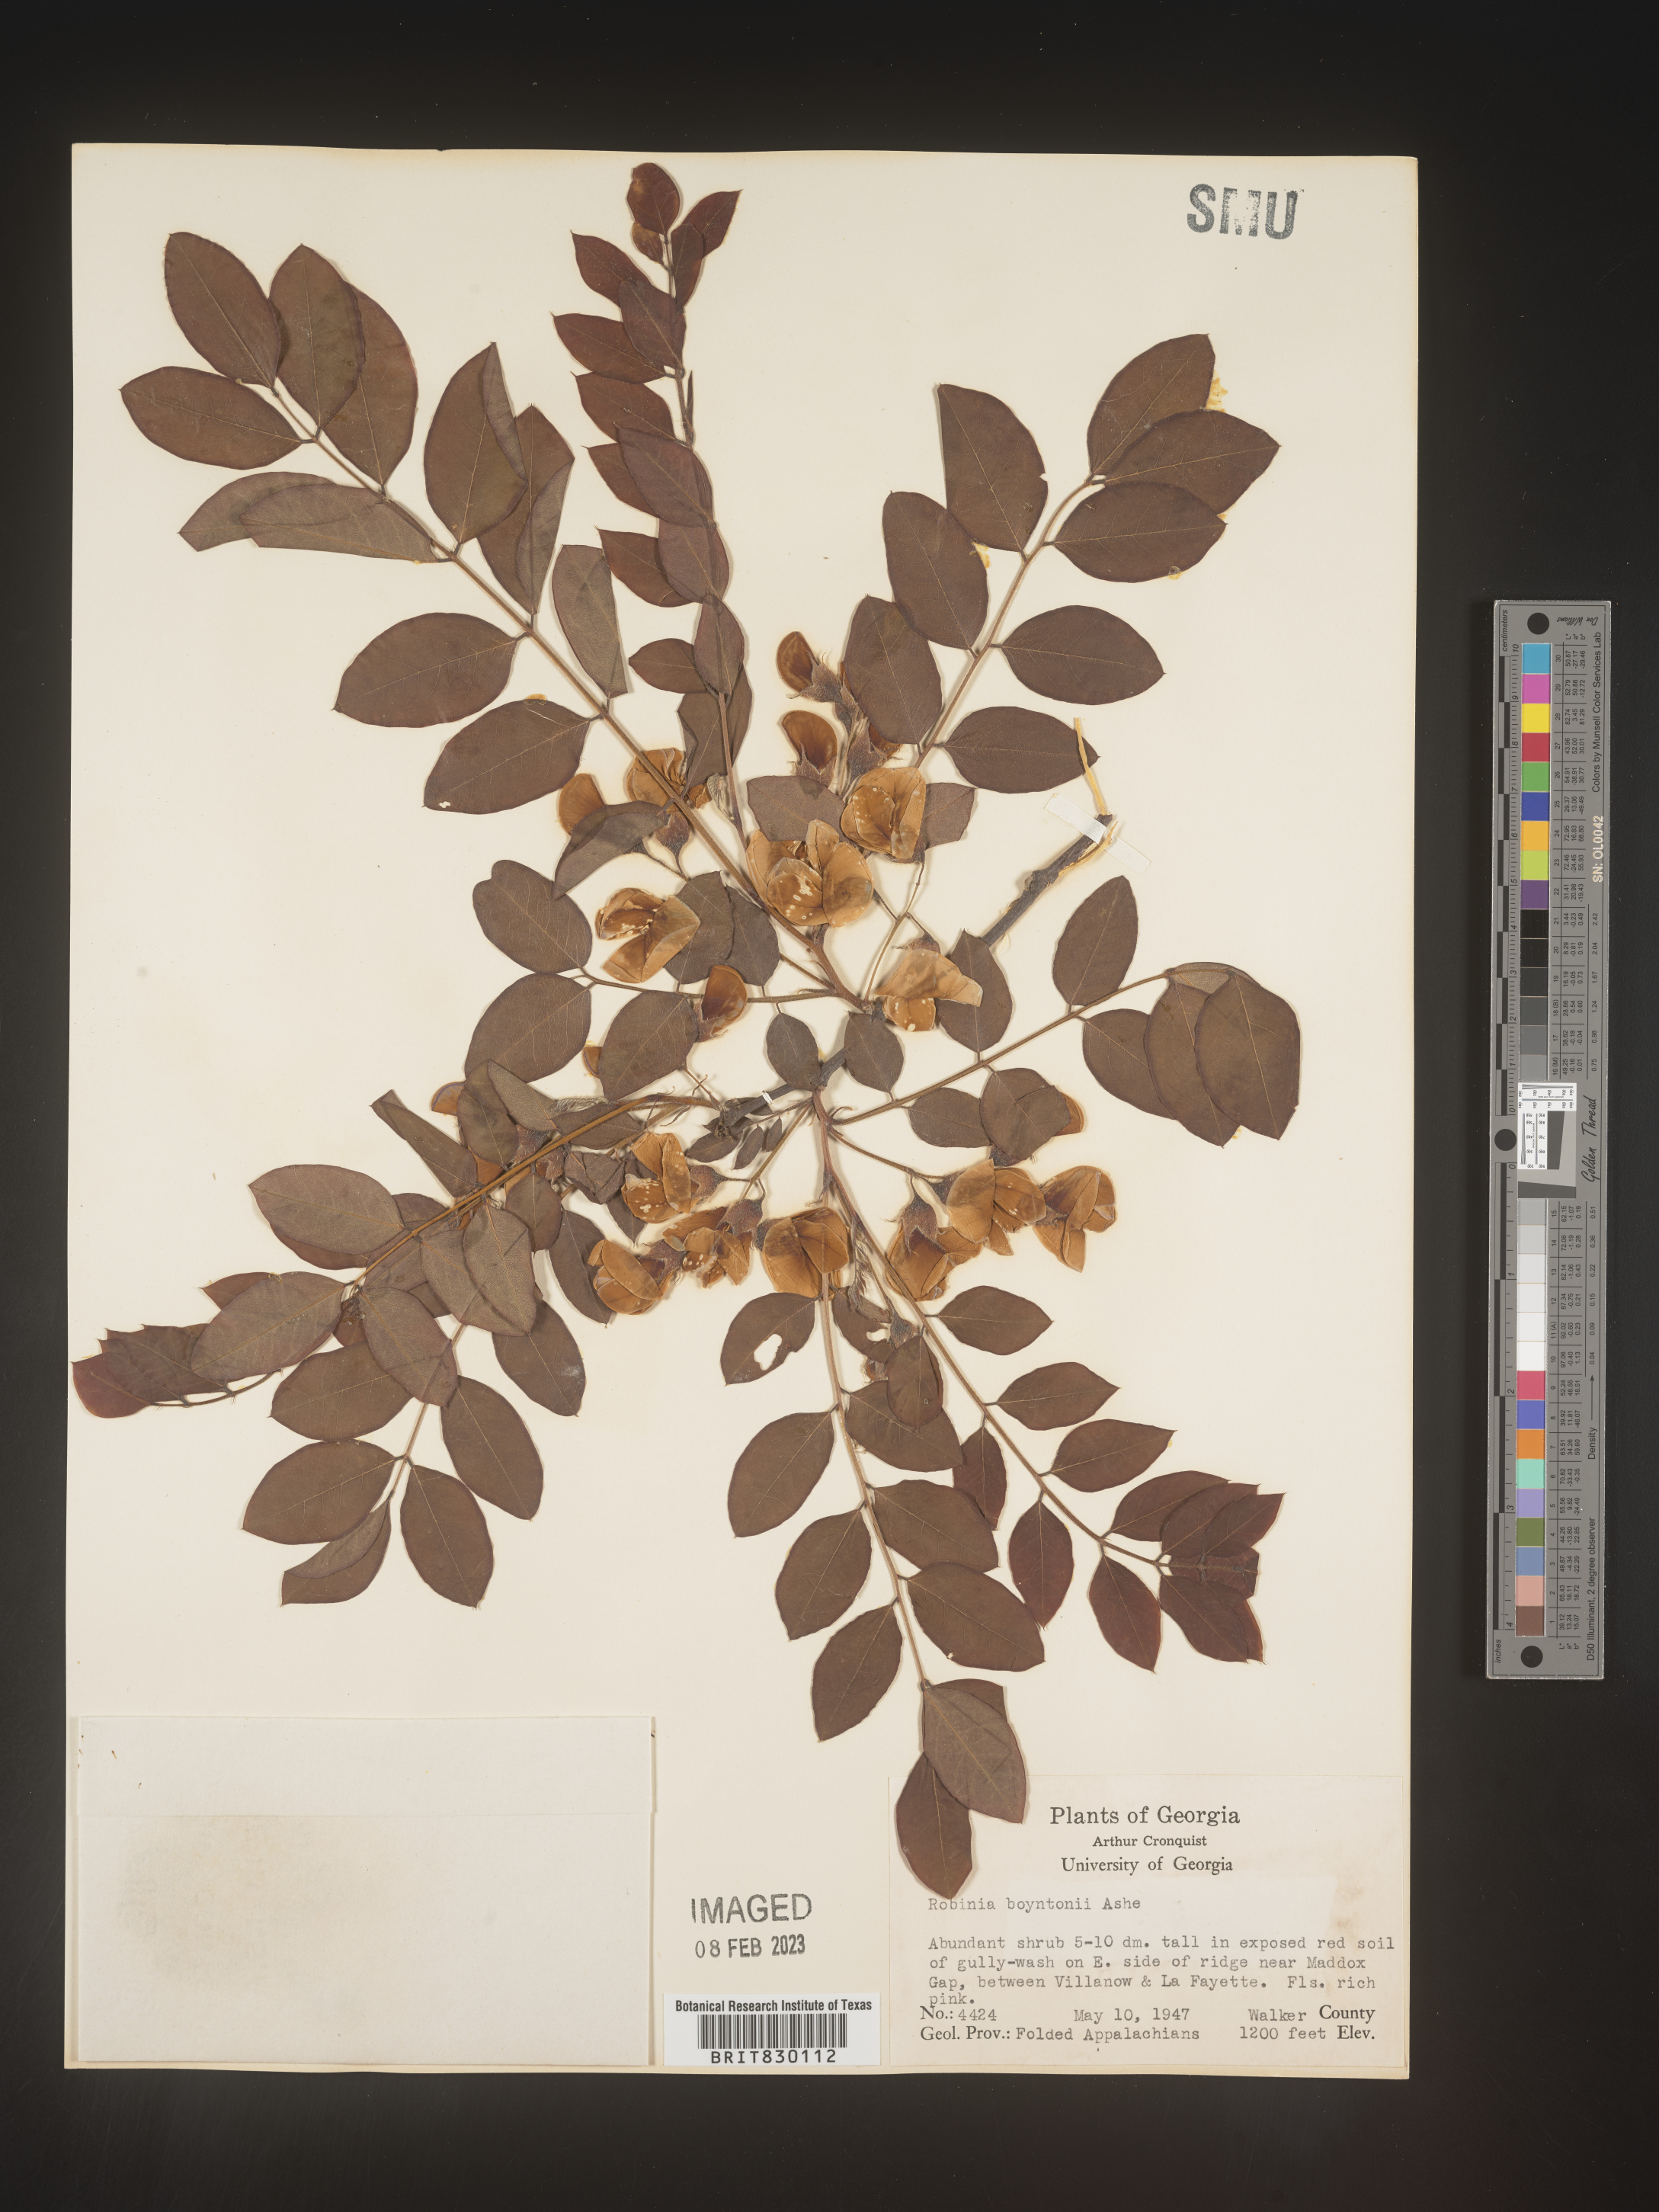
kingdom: Plantae
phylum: Tracheophyta
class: Magnoliopsida
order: Fabales
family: Fabaceae
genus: Robinia
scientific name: Robinia
